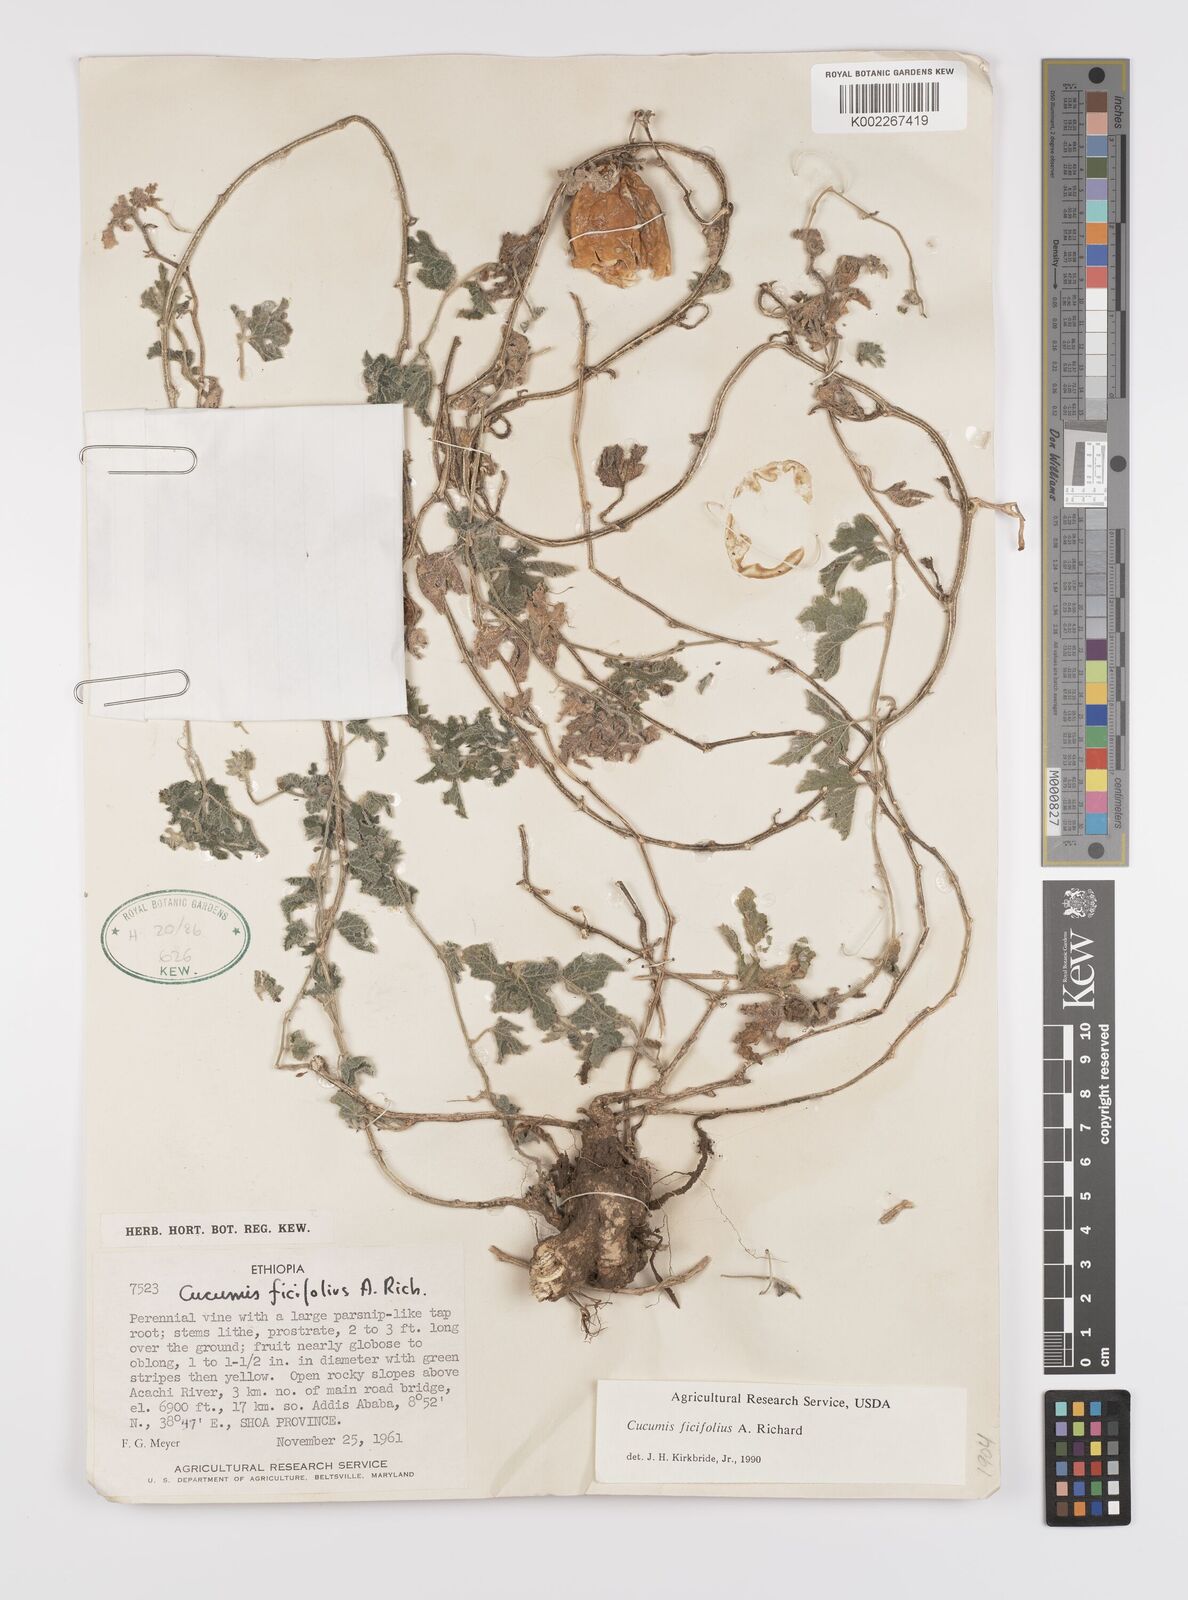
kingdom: Plantae
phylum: Tracheophyta
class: Magnoliopsida
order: Cucurbitales
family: Cucurbitaceae
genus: Cucumis
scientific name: Cucumis ficifolius
